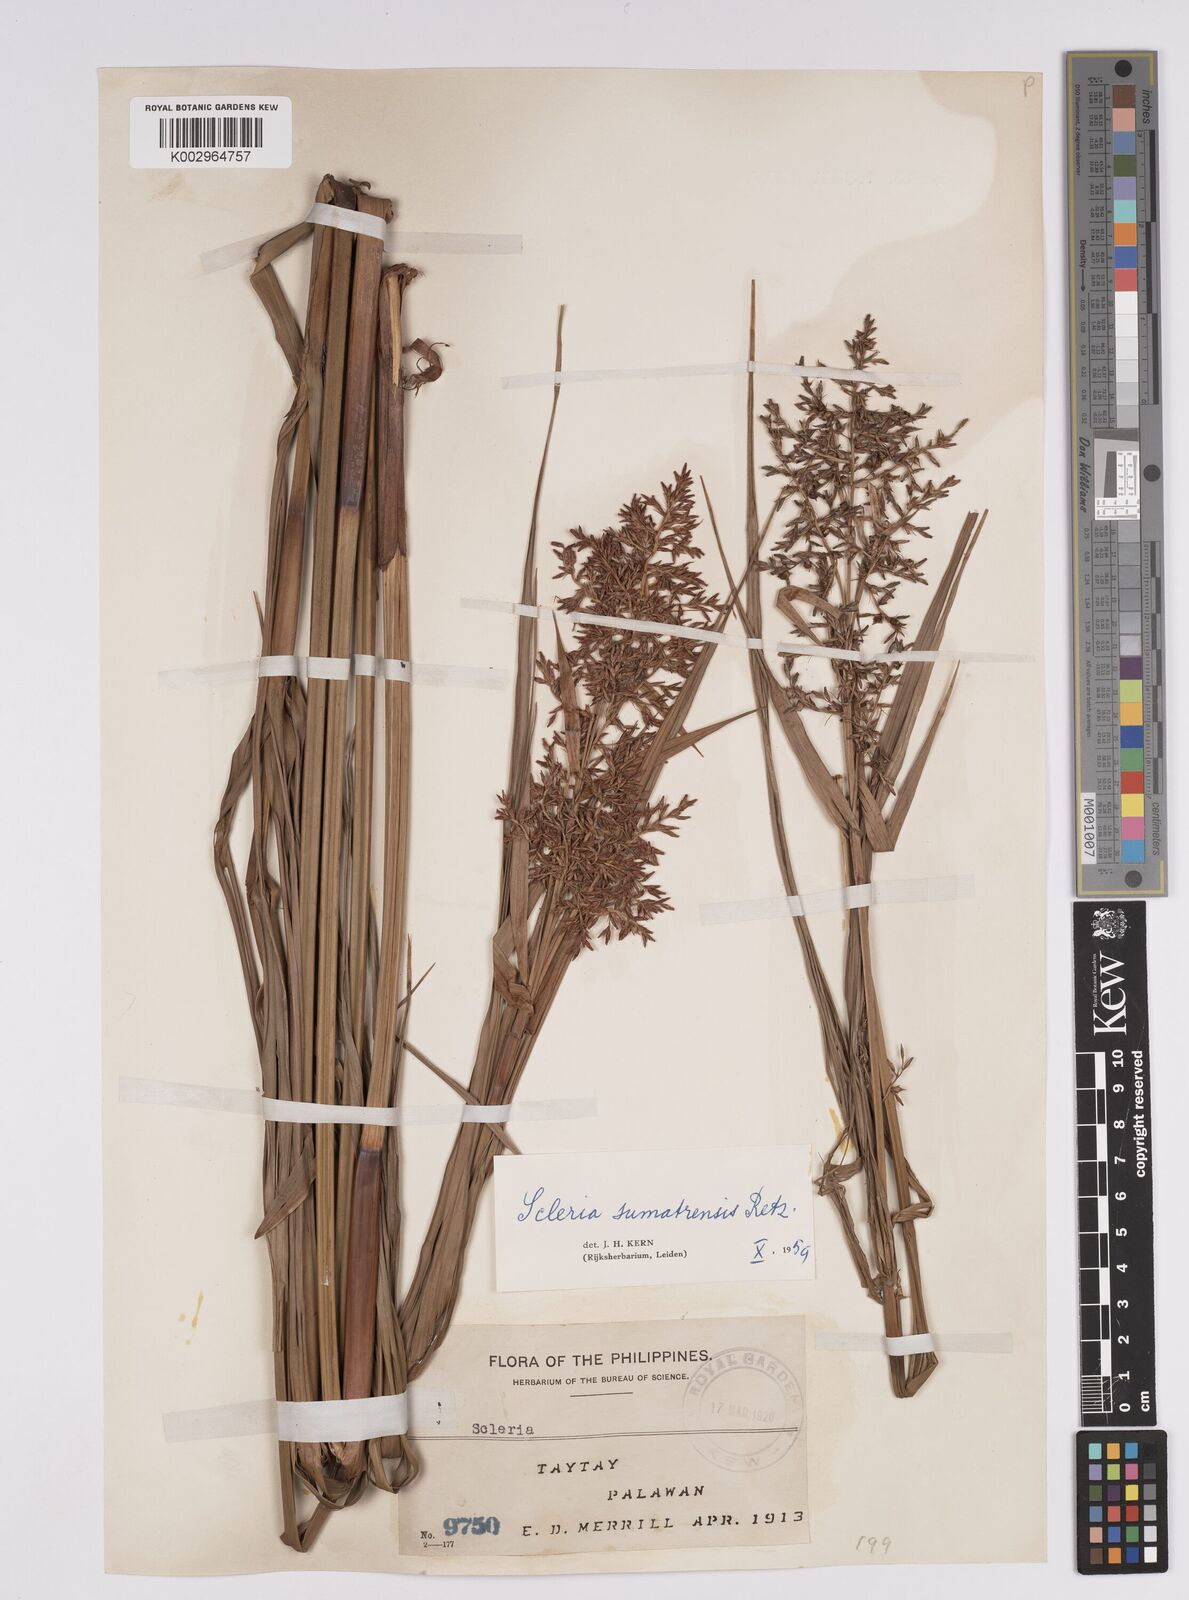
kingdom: Plantae
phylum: Tracheophyta
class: Liliopsida
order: Poales
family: Cyperaceae
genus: Scleria
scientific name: Scleria sumatrensis
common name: Sumatran scleria
